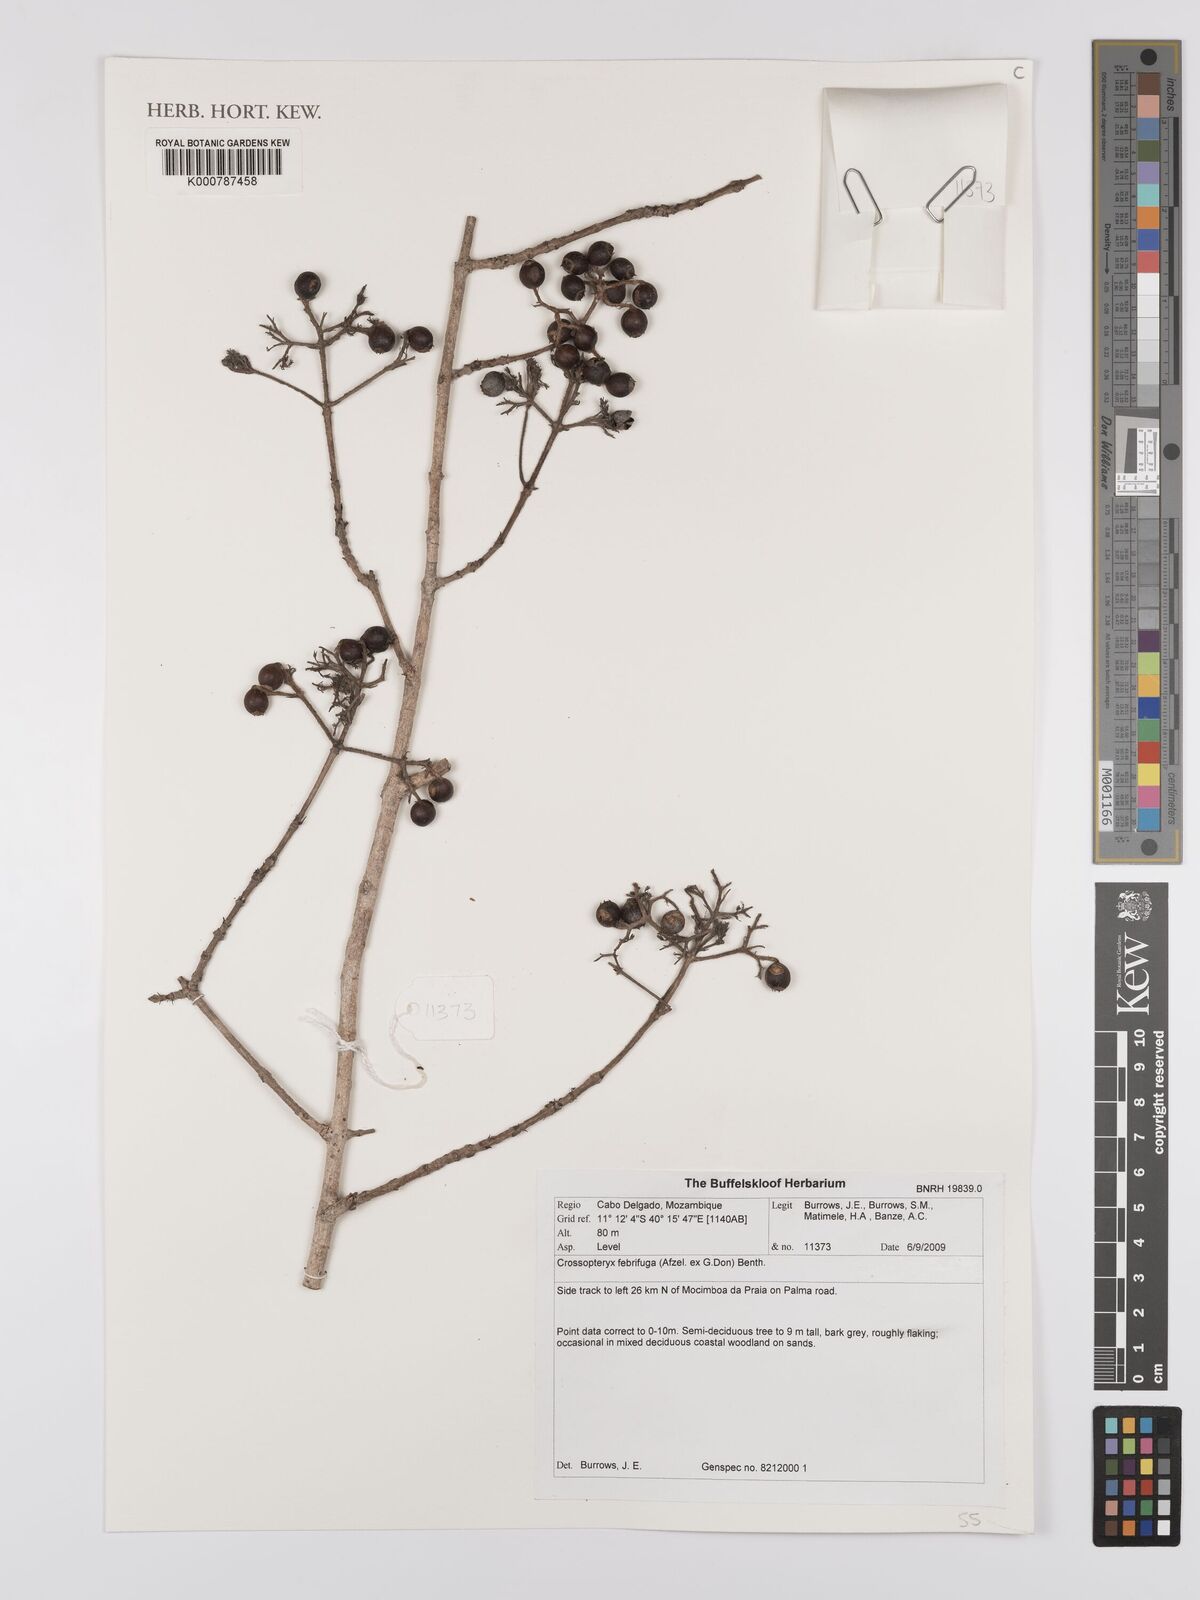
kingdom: Plantae
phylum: Tracheophyta
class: Magnoliopsida
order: Gentianales
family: Rubiaceae
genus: Crossopteryx
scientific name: Crossopteryx febrifuga
